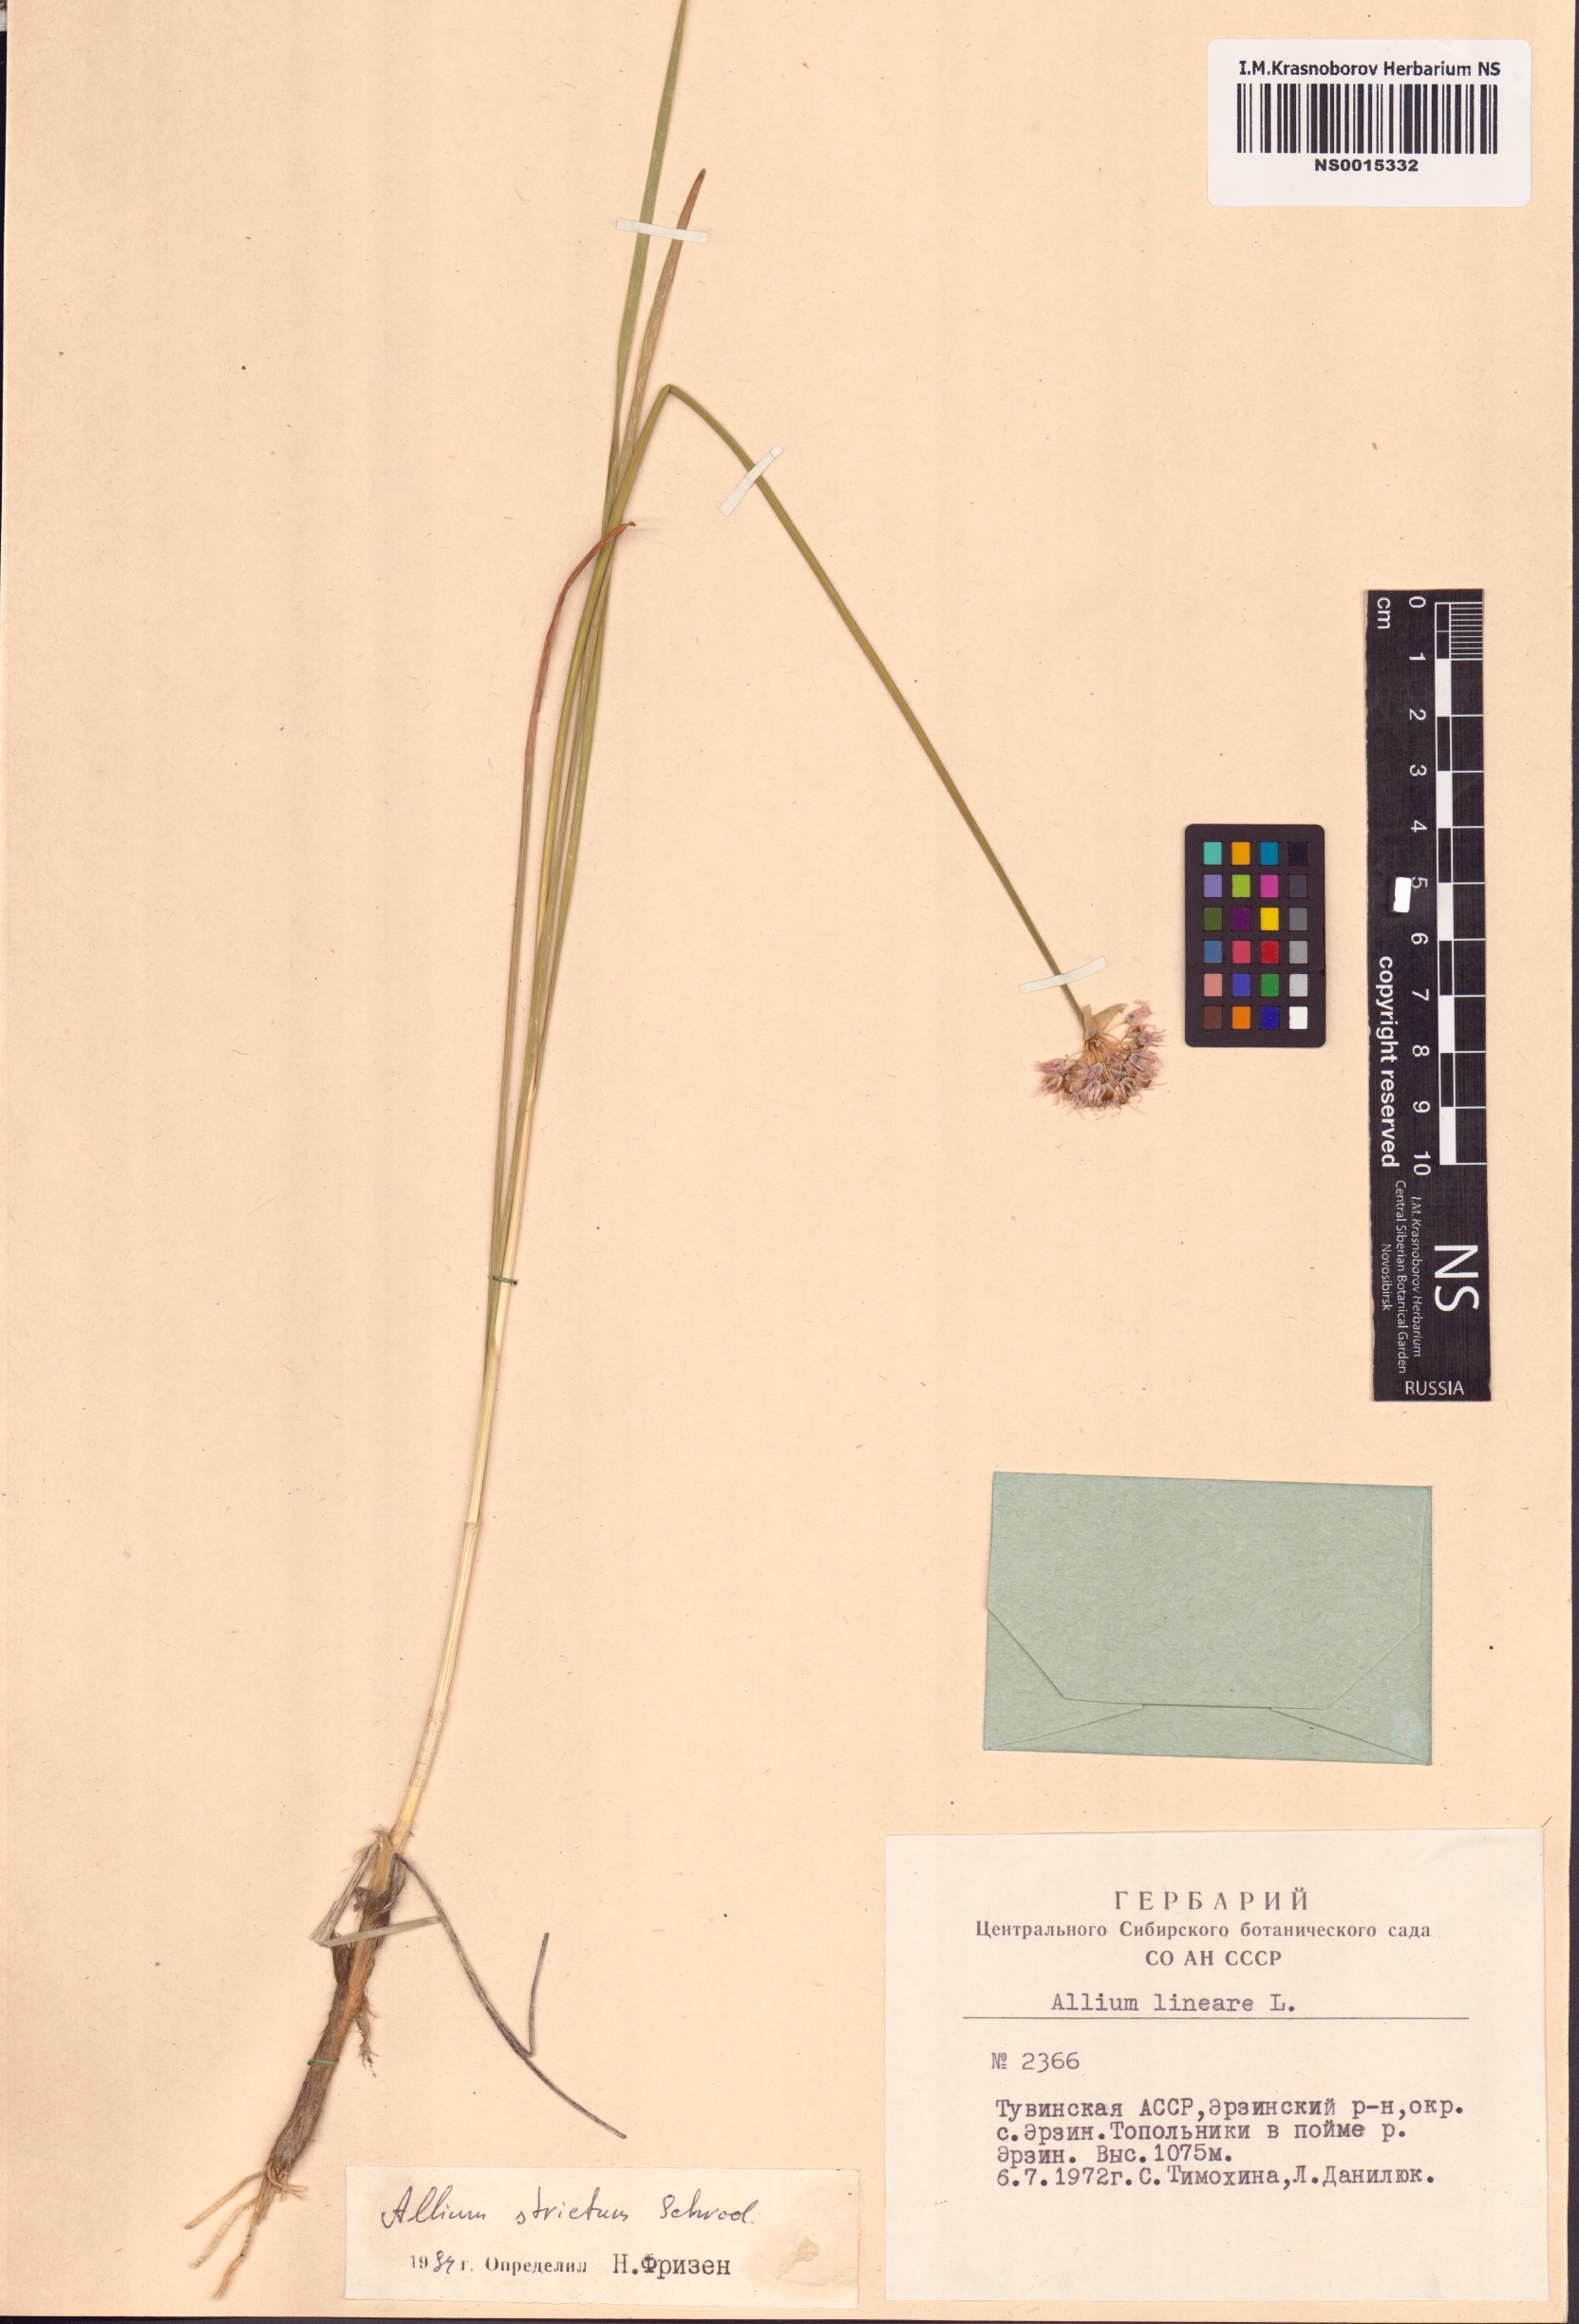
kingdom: Plantae
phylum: Tracheophyta
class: Liliopsida
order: Asparagales
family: Amaryllidaceae
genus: Allium
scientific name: Allium strictum
